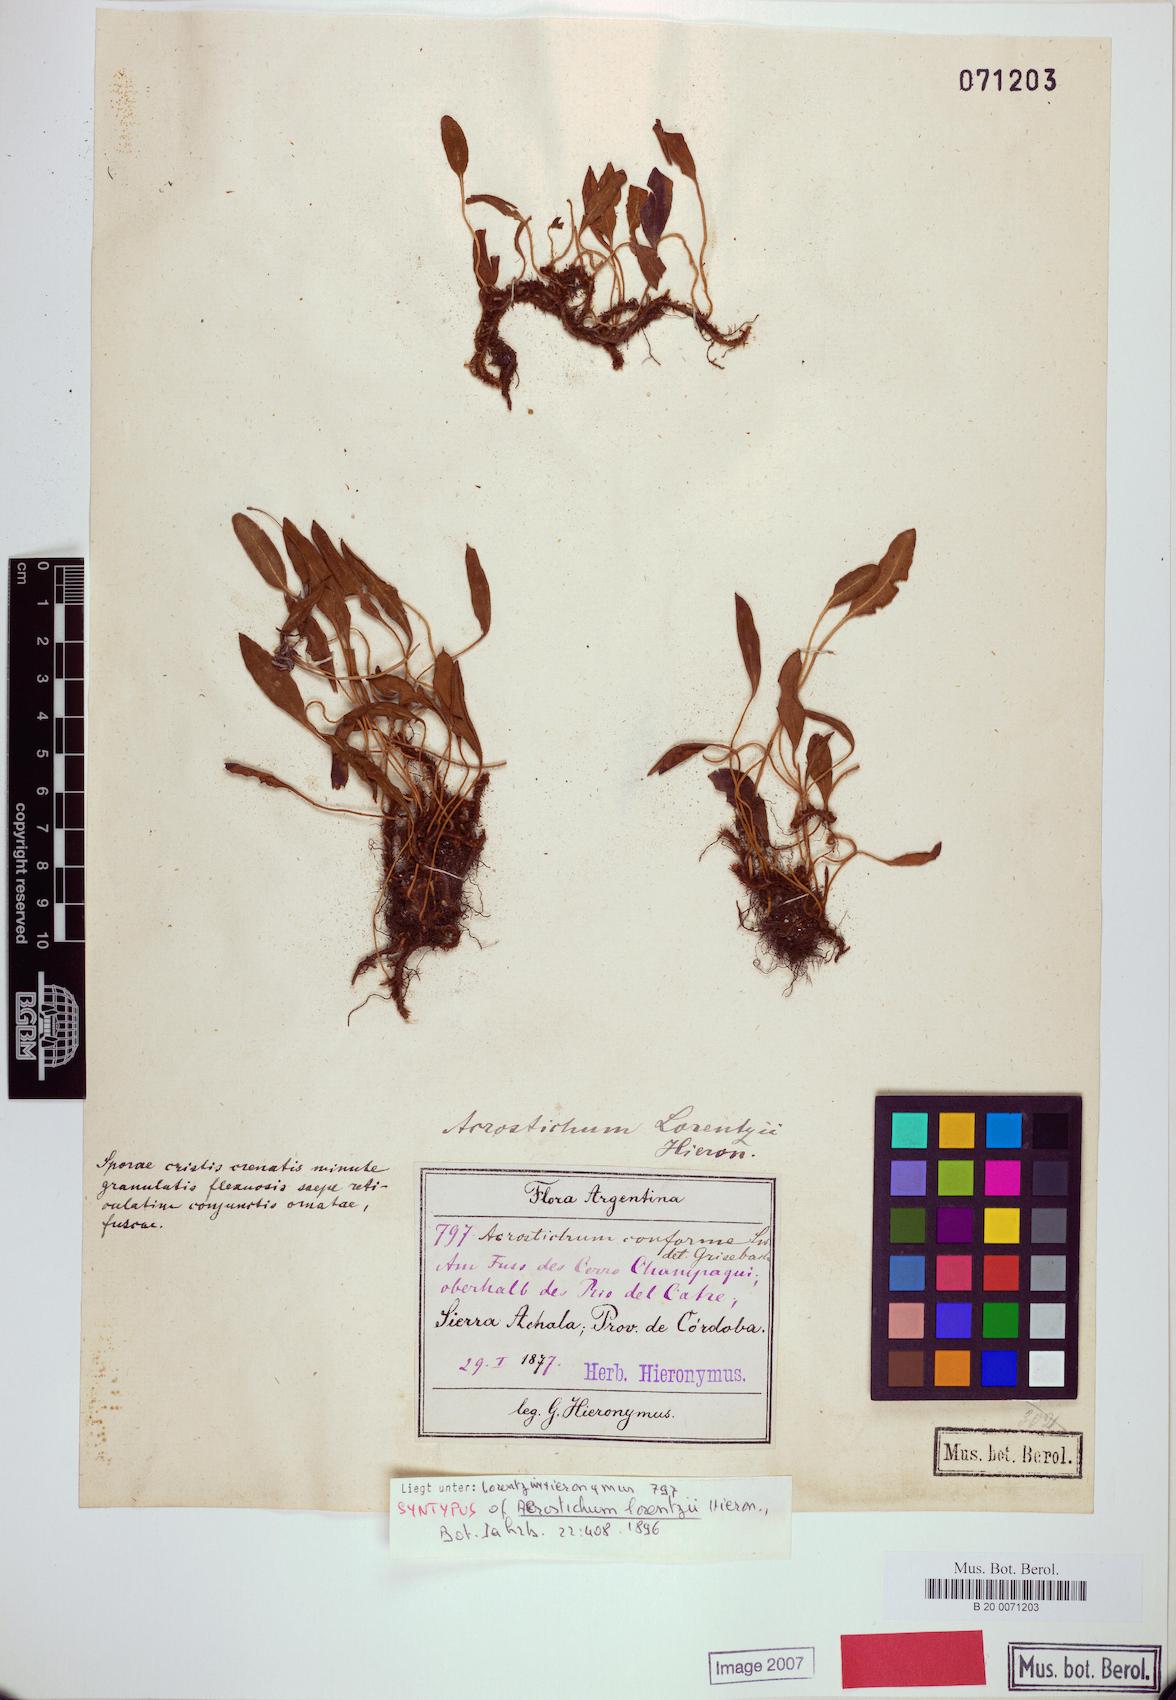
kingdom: Plantae
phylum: Tracheophyta
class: Polypodiopsida
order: Polypodiales
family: Dryopteridaceae
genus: Elaphoglossum
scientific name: Elaphoglossum lorentzii
